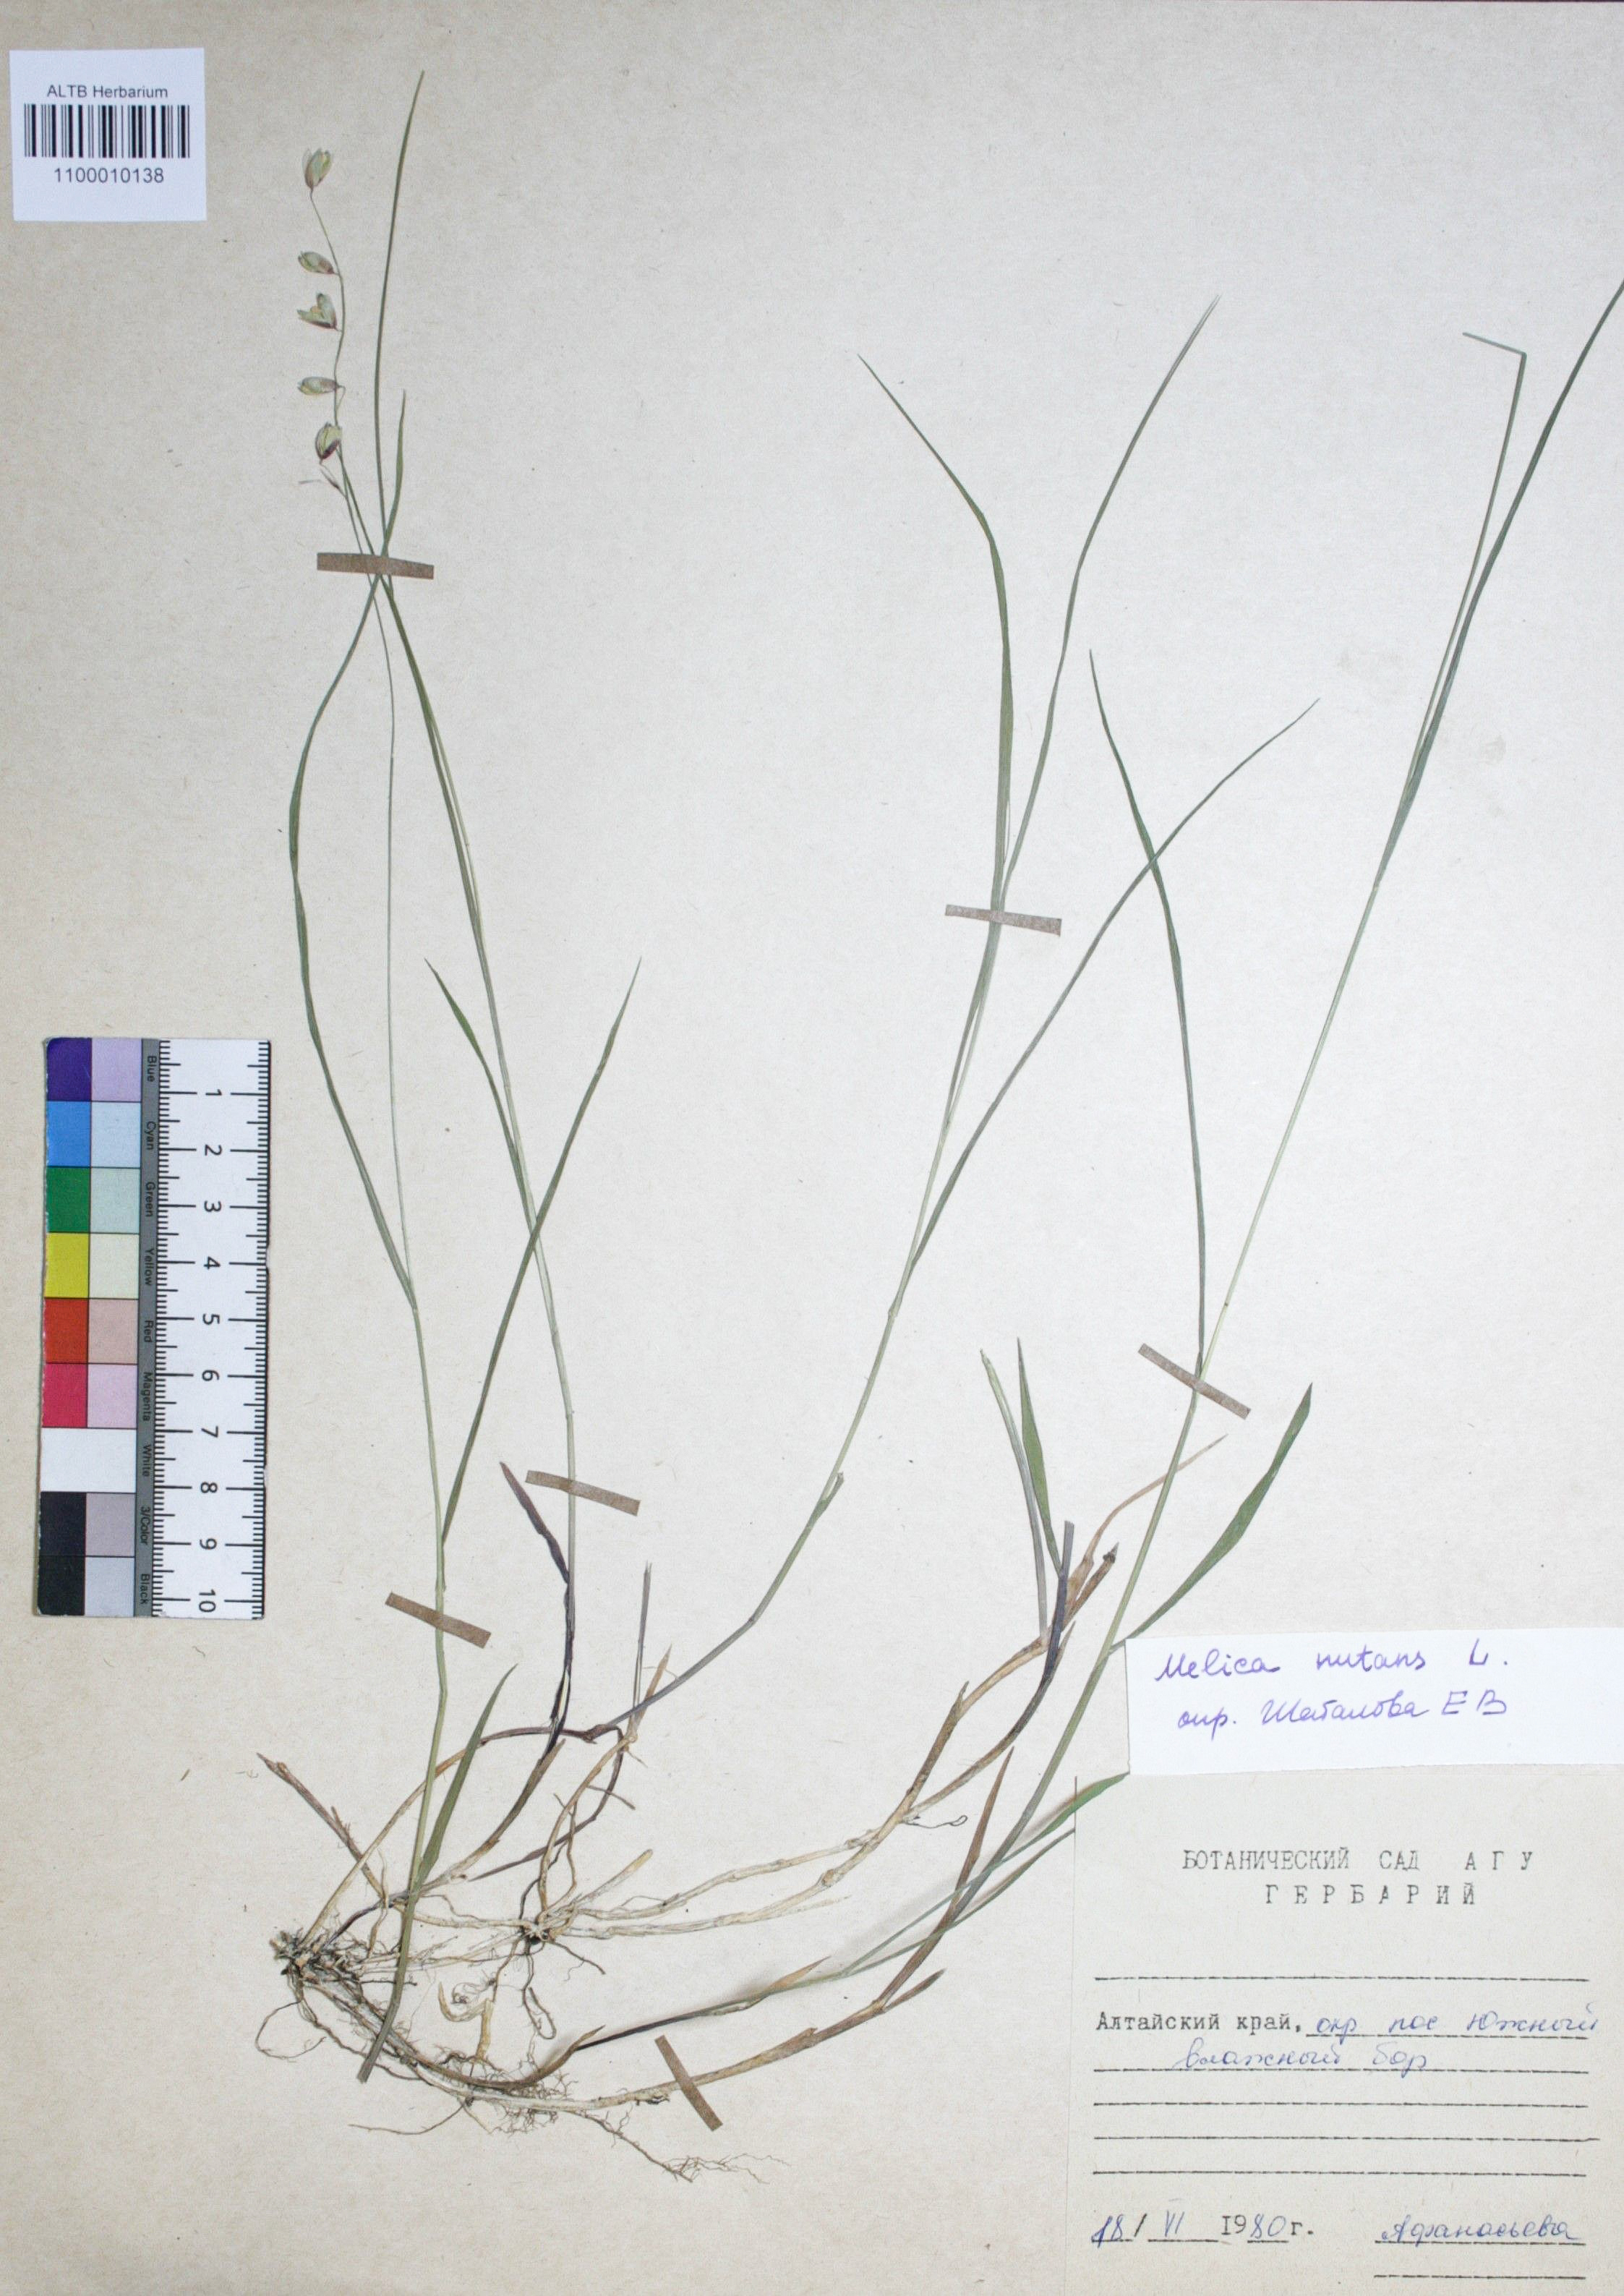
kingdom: Plantae
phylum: Tracheophyta
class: Liliopsida
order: Poales
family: Poaceae
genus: Melica
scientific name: Melica nutans
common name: Mountain melick
